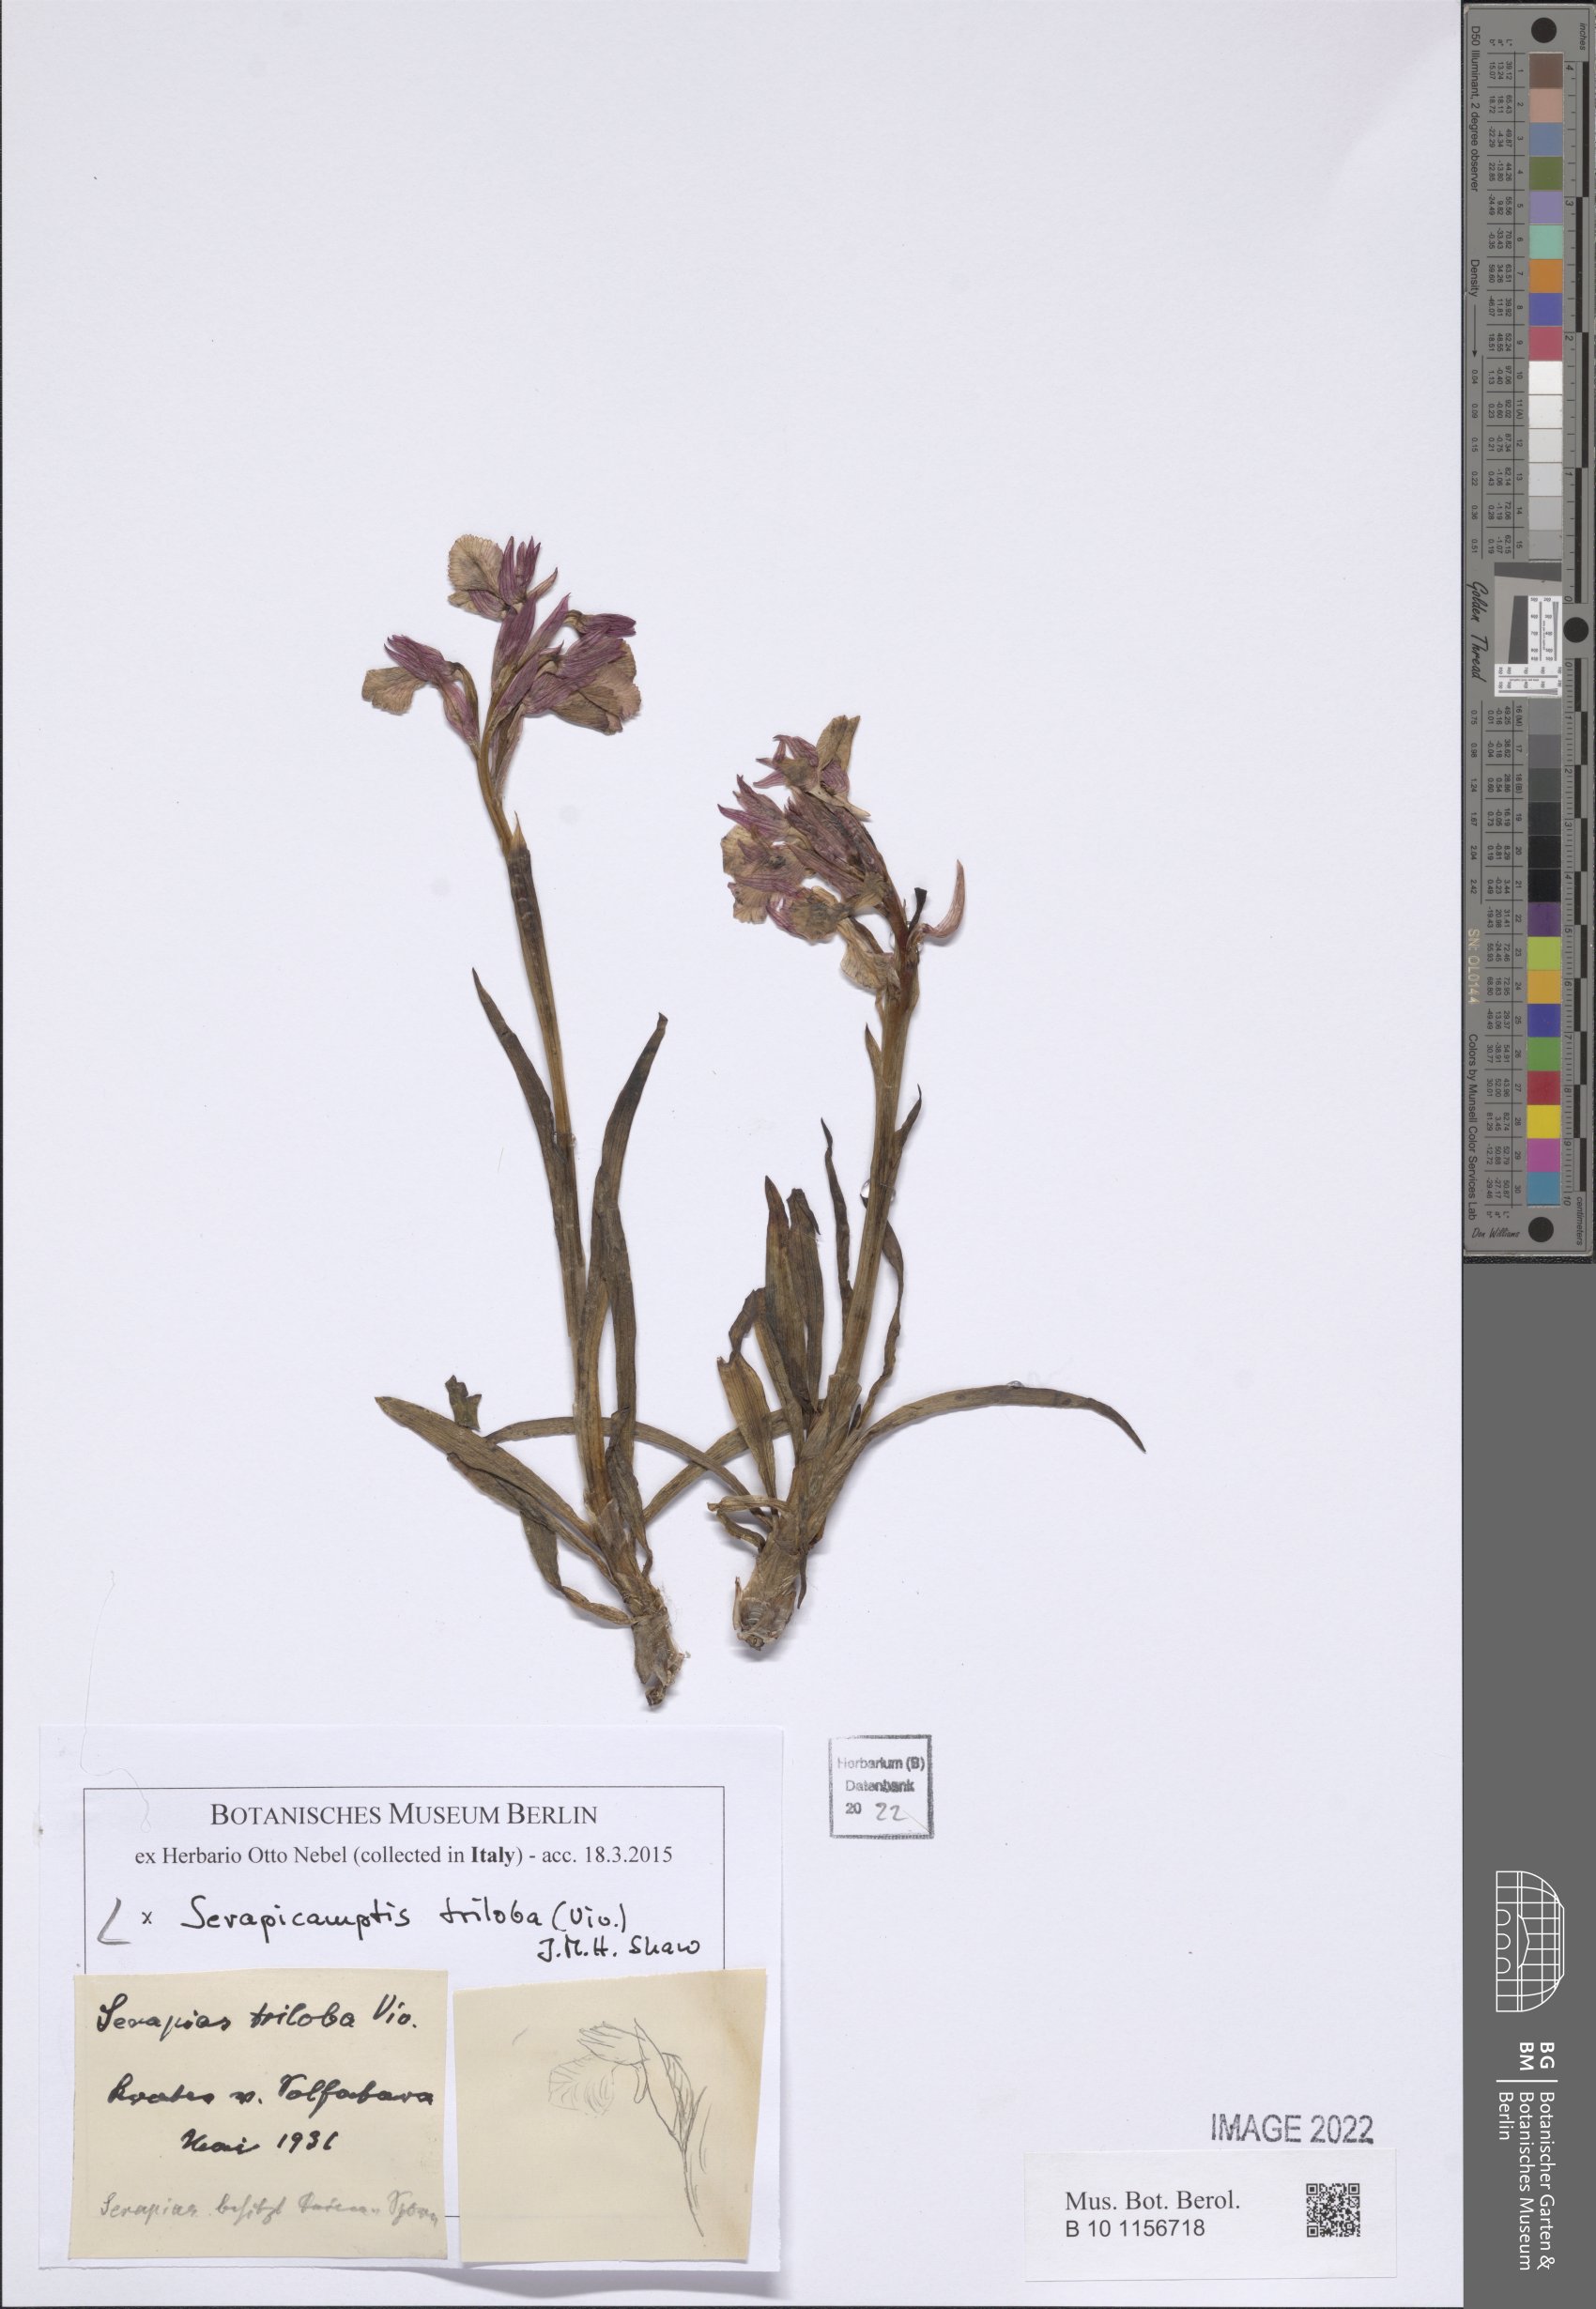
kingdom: Plantae
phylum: Tracheophyta
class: Liliopsida
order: Asparagales
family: Orchidaceae
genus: Serapicamptis
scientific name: Serapicamptis triloba
